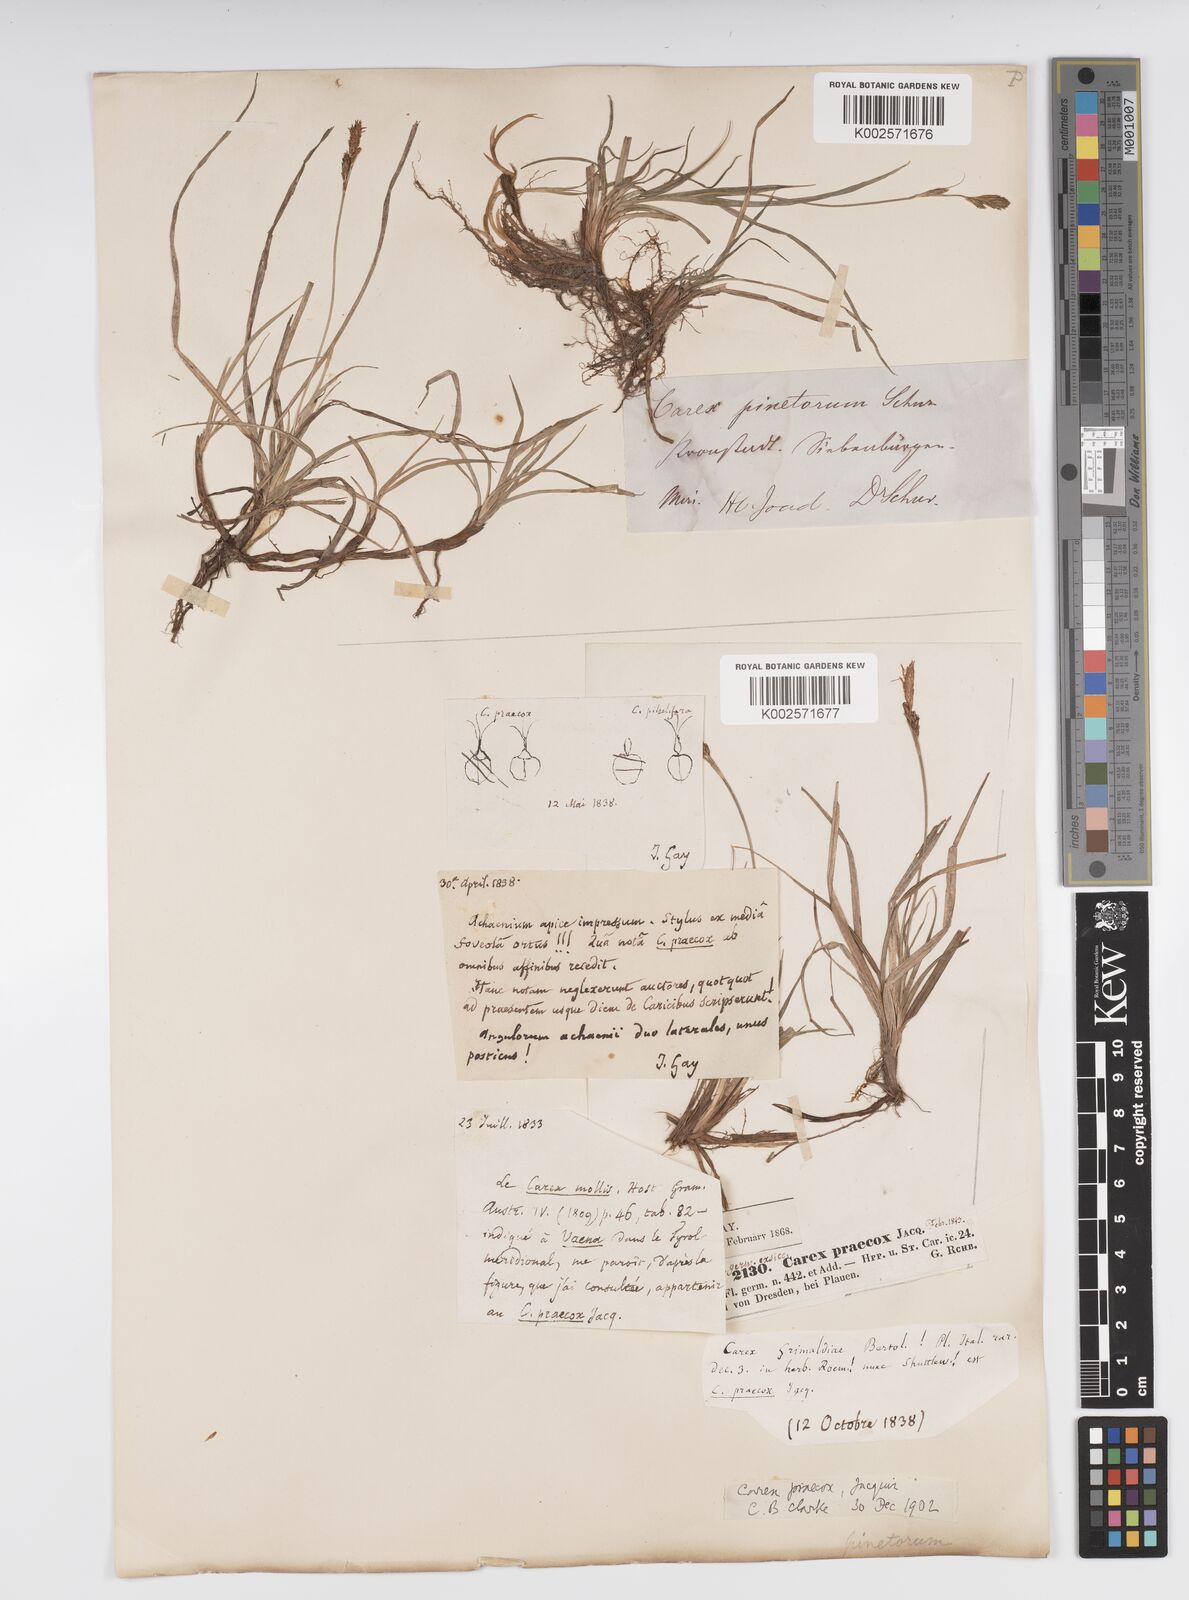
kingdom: Plantae
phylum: Tracheophyta
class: Liliopsida
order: Poales
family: Cyperaceae
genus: Carex
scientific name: Carex caryophyllea
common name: Spring sedge
